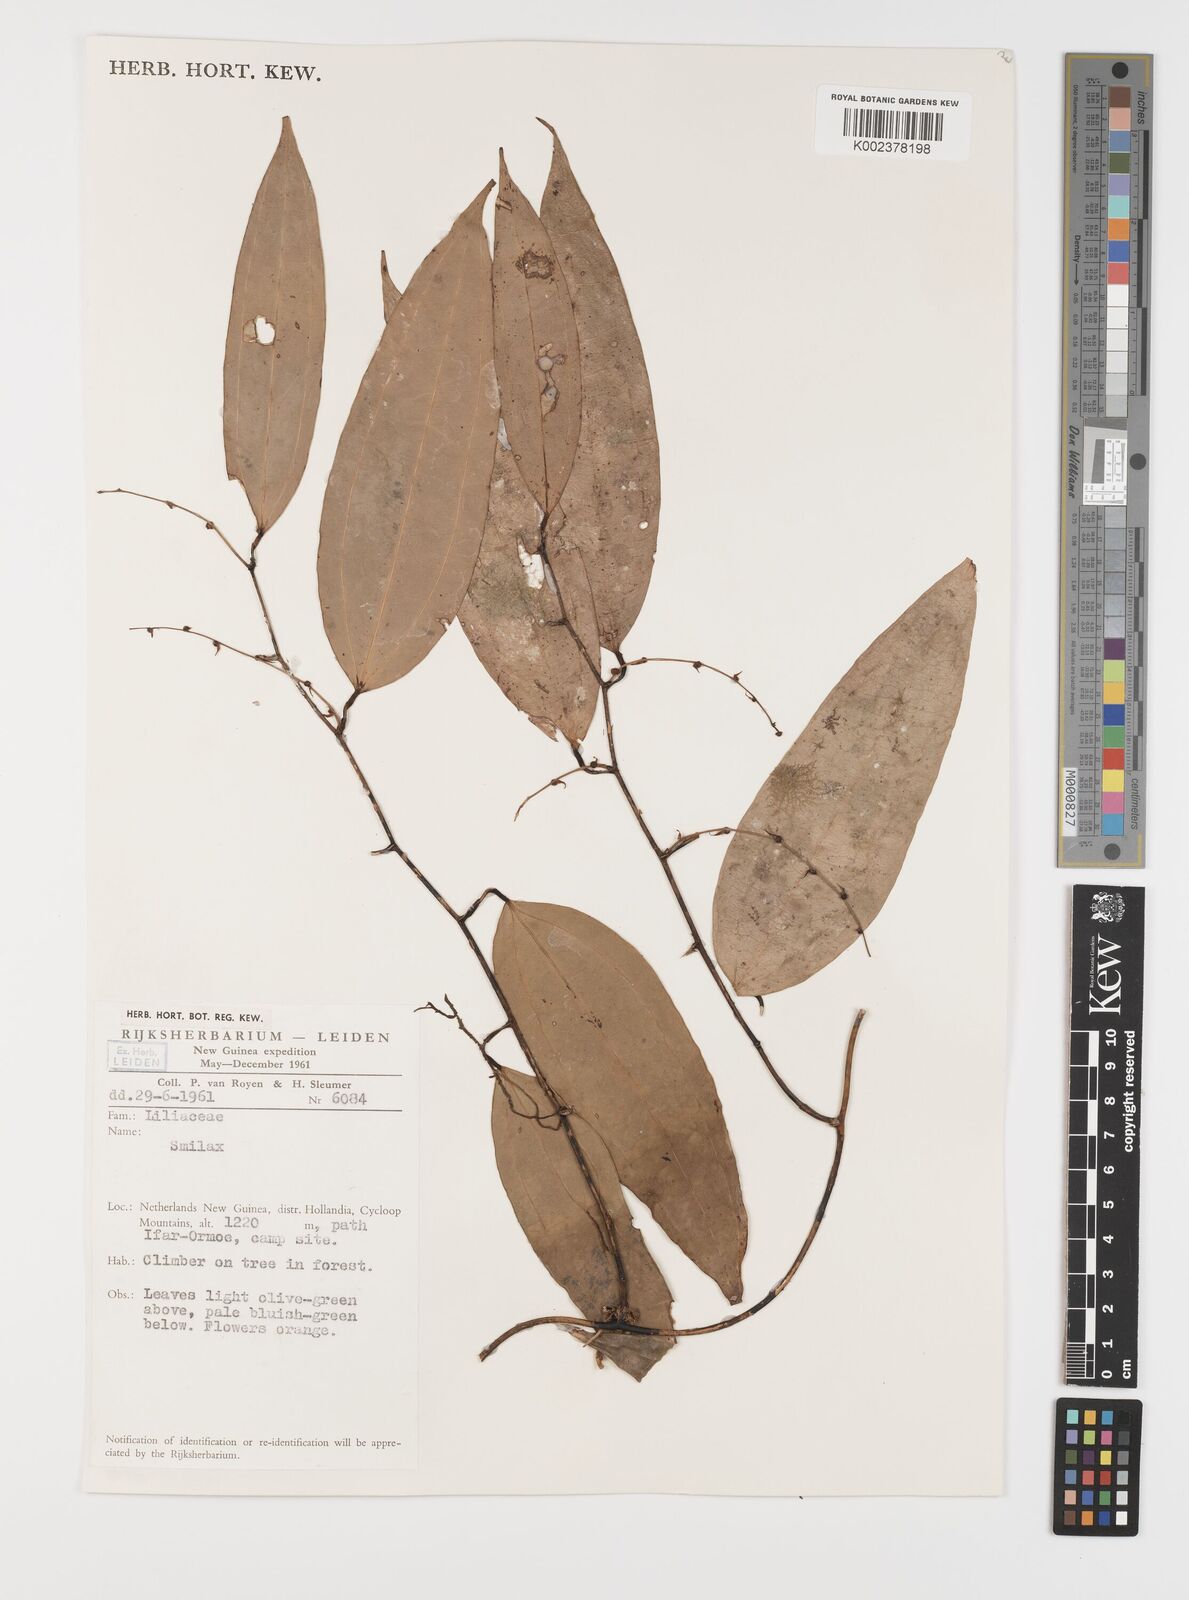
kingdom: Plantae
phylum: Tracheophyta
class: Liliopsida
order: Liliales
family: Smilacaceae
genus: Smilax
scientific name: Smilax
